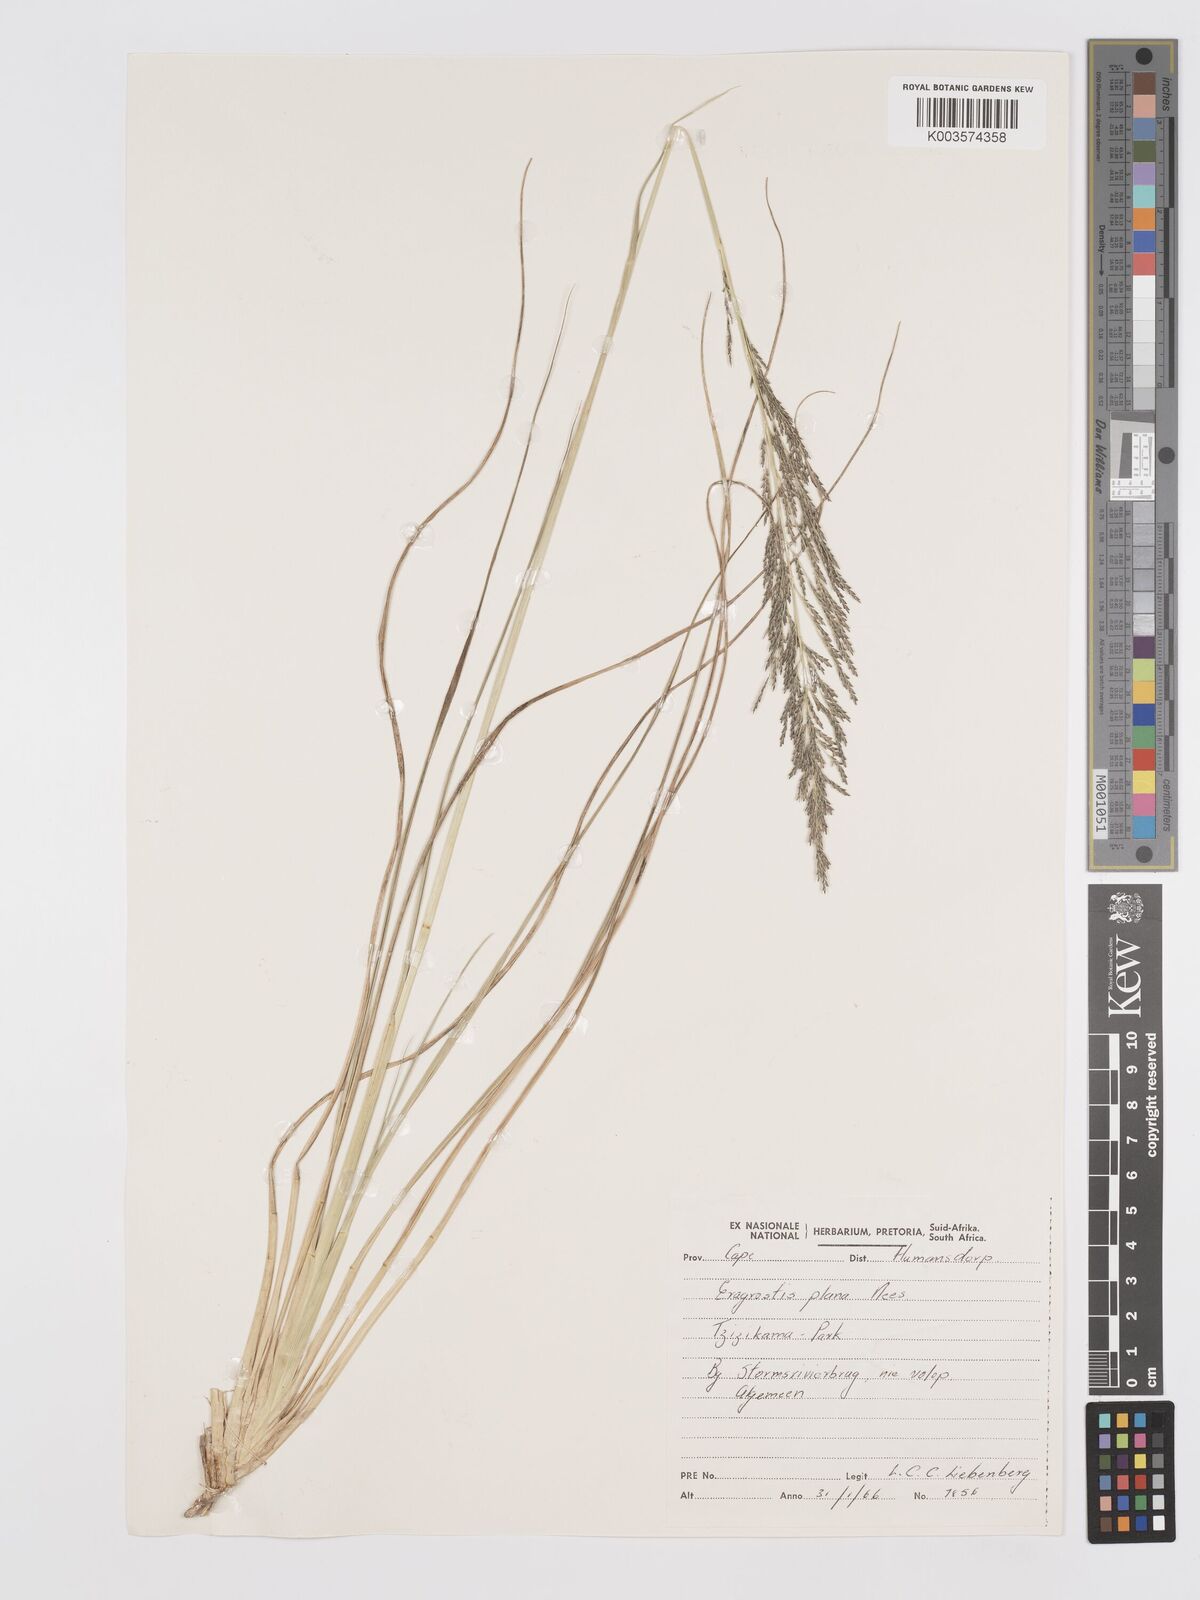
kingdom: Plantae
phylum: Tracheophyta
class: Liliopsida
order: Poales
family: Poaceae
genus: Eragrostis
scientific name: Eragrostis plana
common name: South african lovegrass
